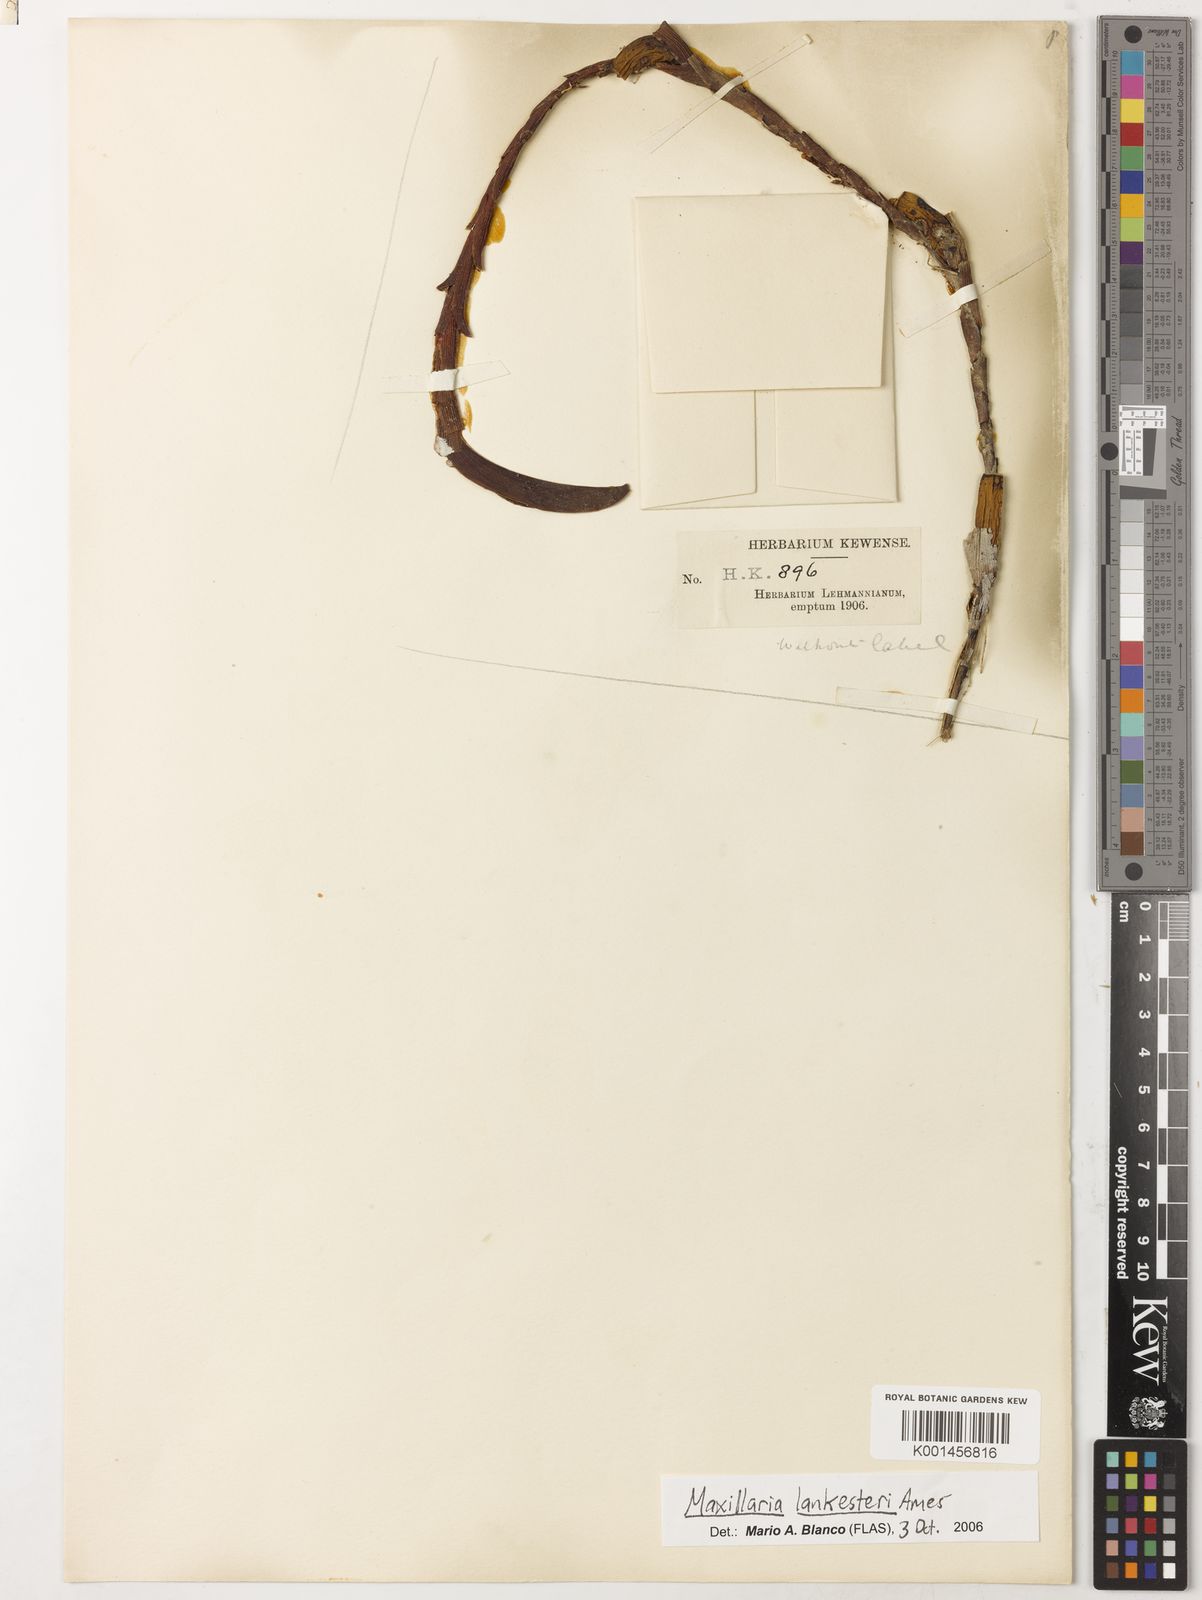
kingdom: Plantae
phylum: Tracheophyta
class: Liliopsida
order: Asparagales
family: Orchidaceae
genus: Maxillaria
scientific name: Maxillaria lankesteri
